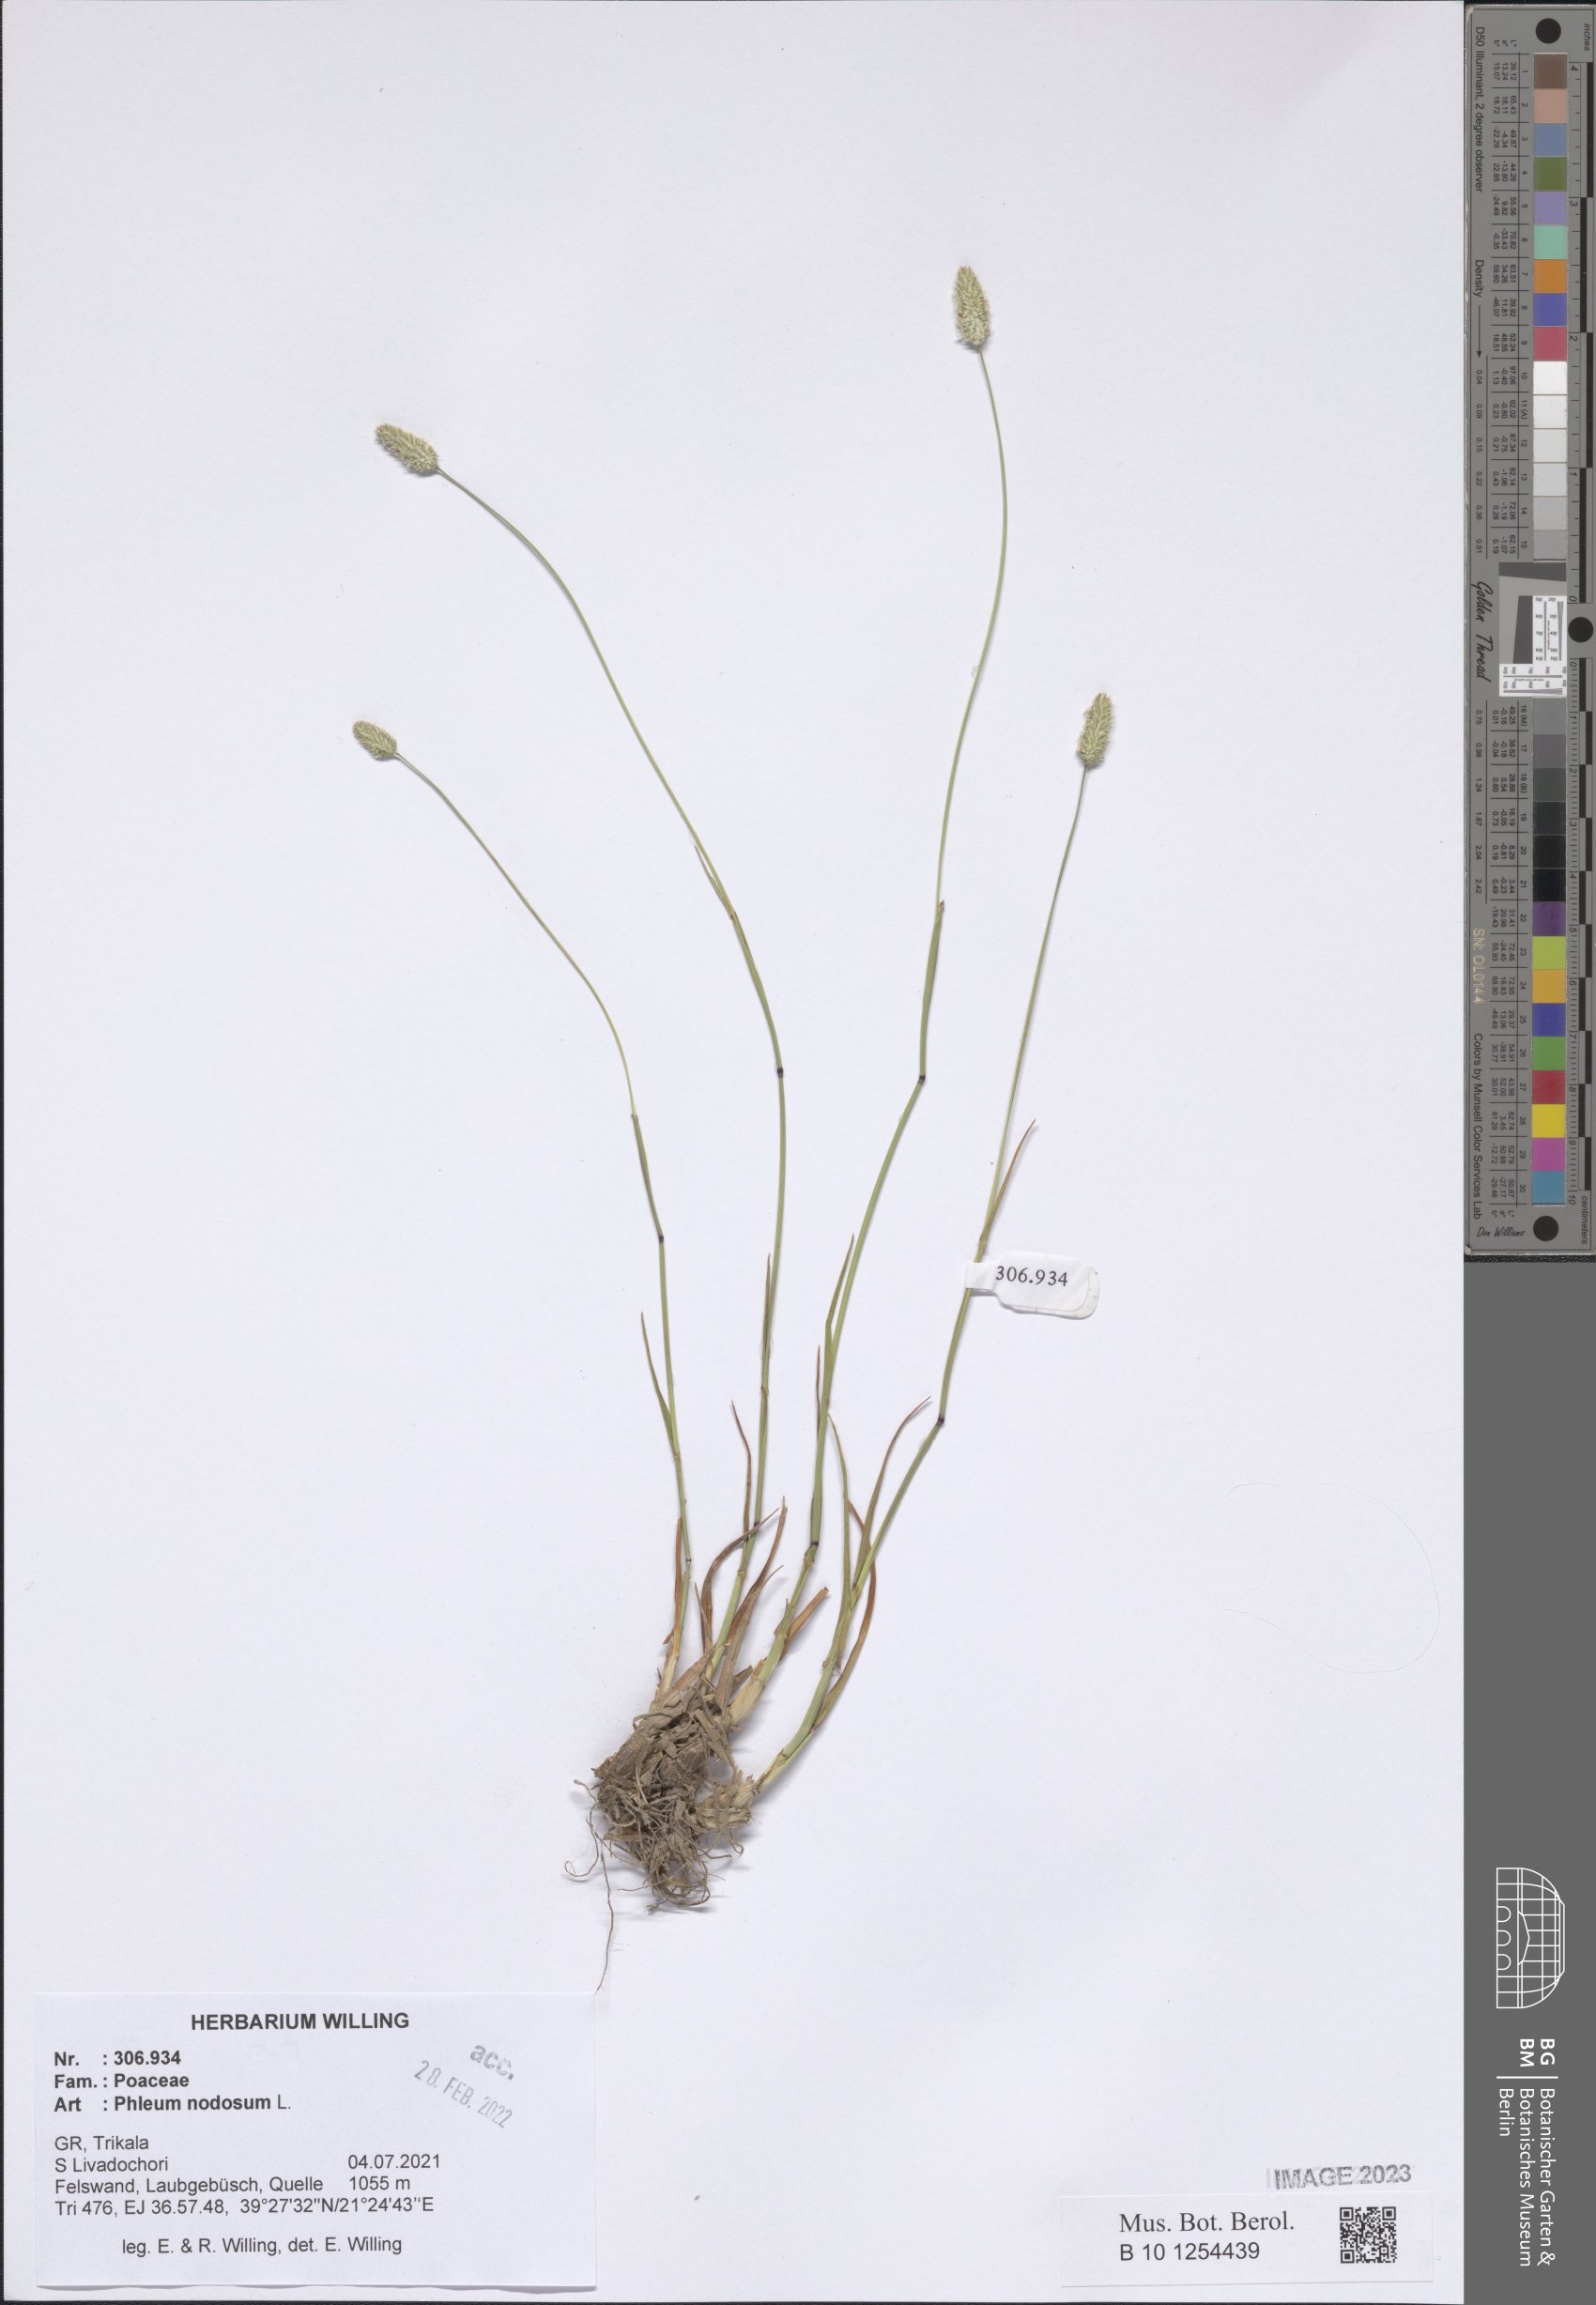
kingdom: Plantae
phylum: Tracheophyta
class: Liliopsida
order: Poales
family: Poaceae
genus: Phleum
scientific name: Phleum pratense
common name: Timothy grass
